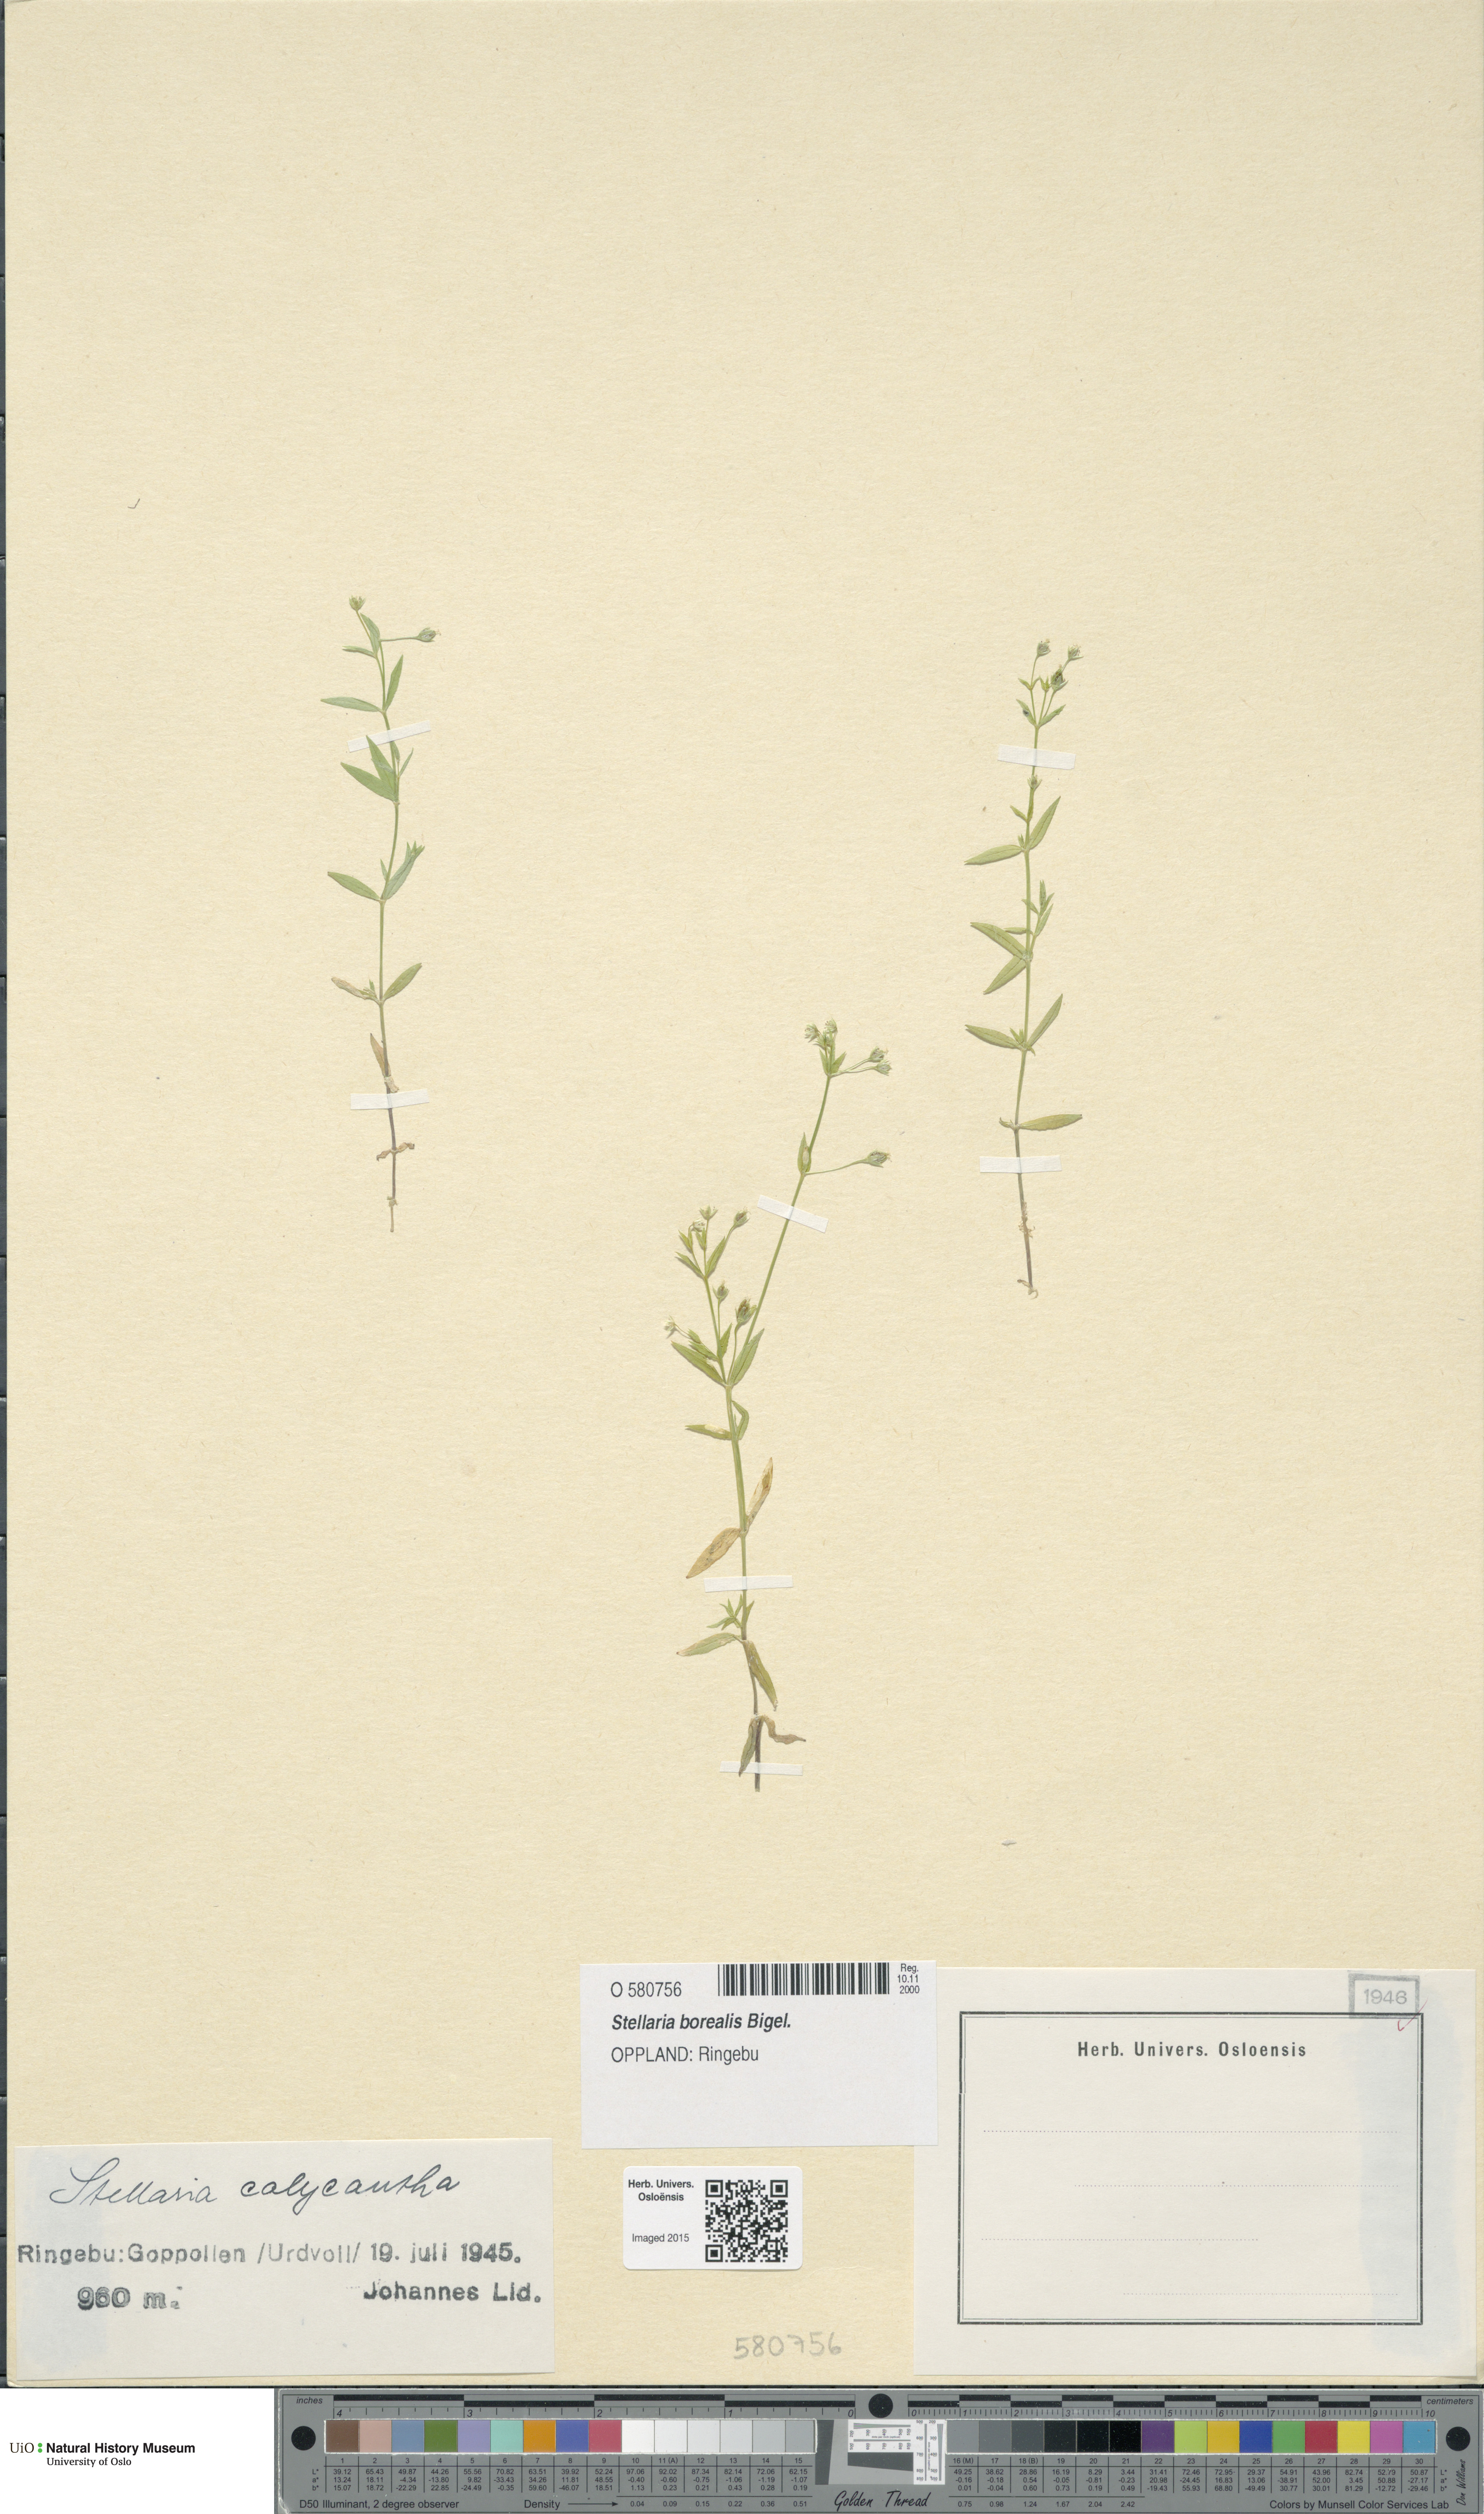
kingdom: Plantae
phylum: Tracheophyta
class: Magnoliopsida
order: Caryophyllales
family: Caryophyllaceae
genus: Stellaria
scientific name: Stellaria borealis
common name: Boreal starwort
